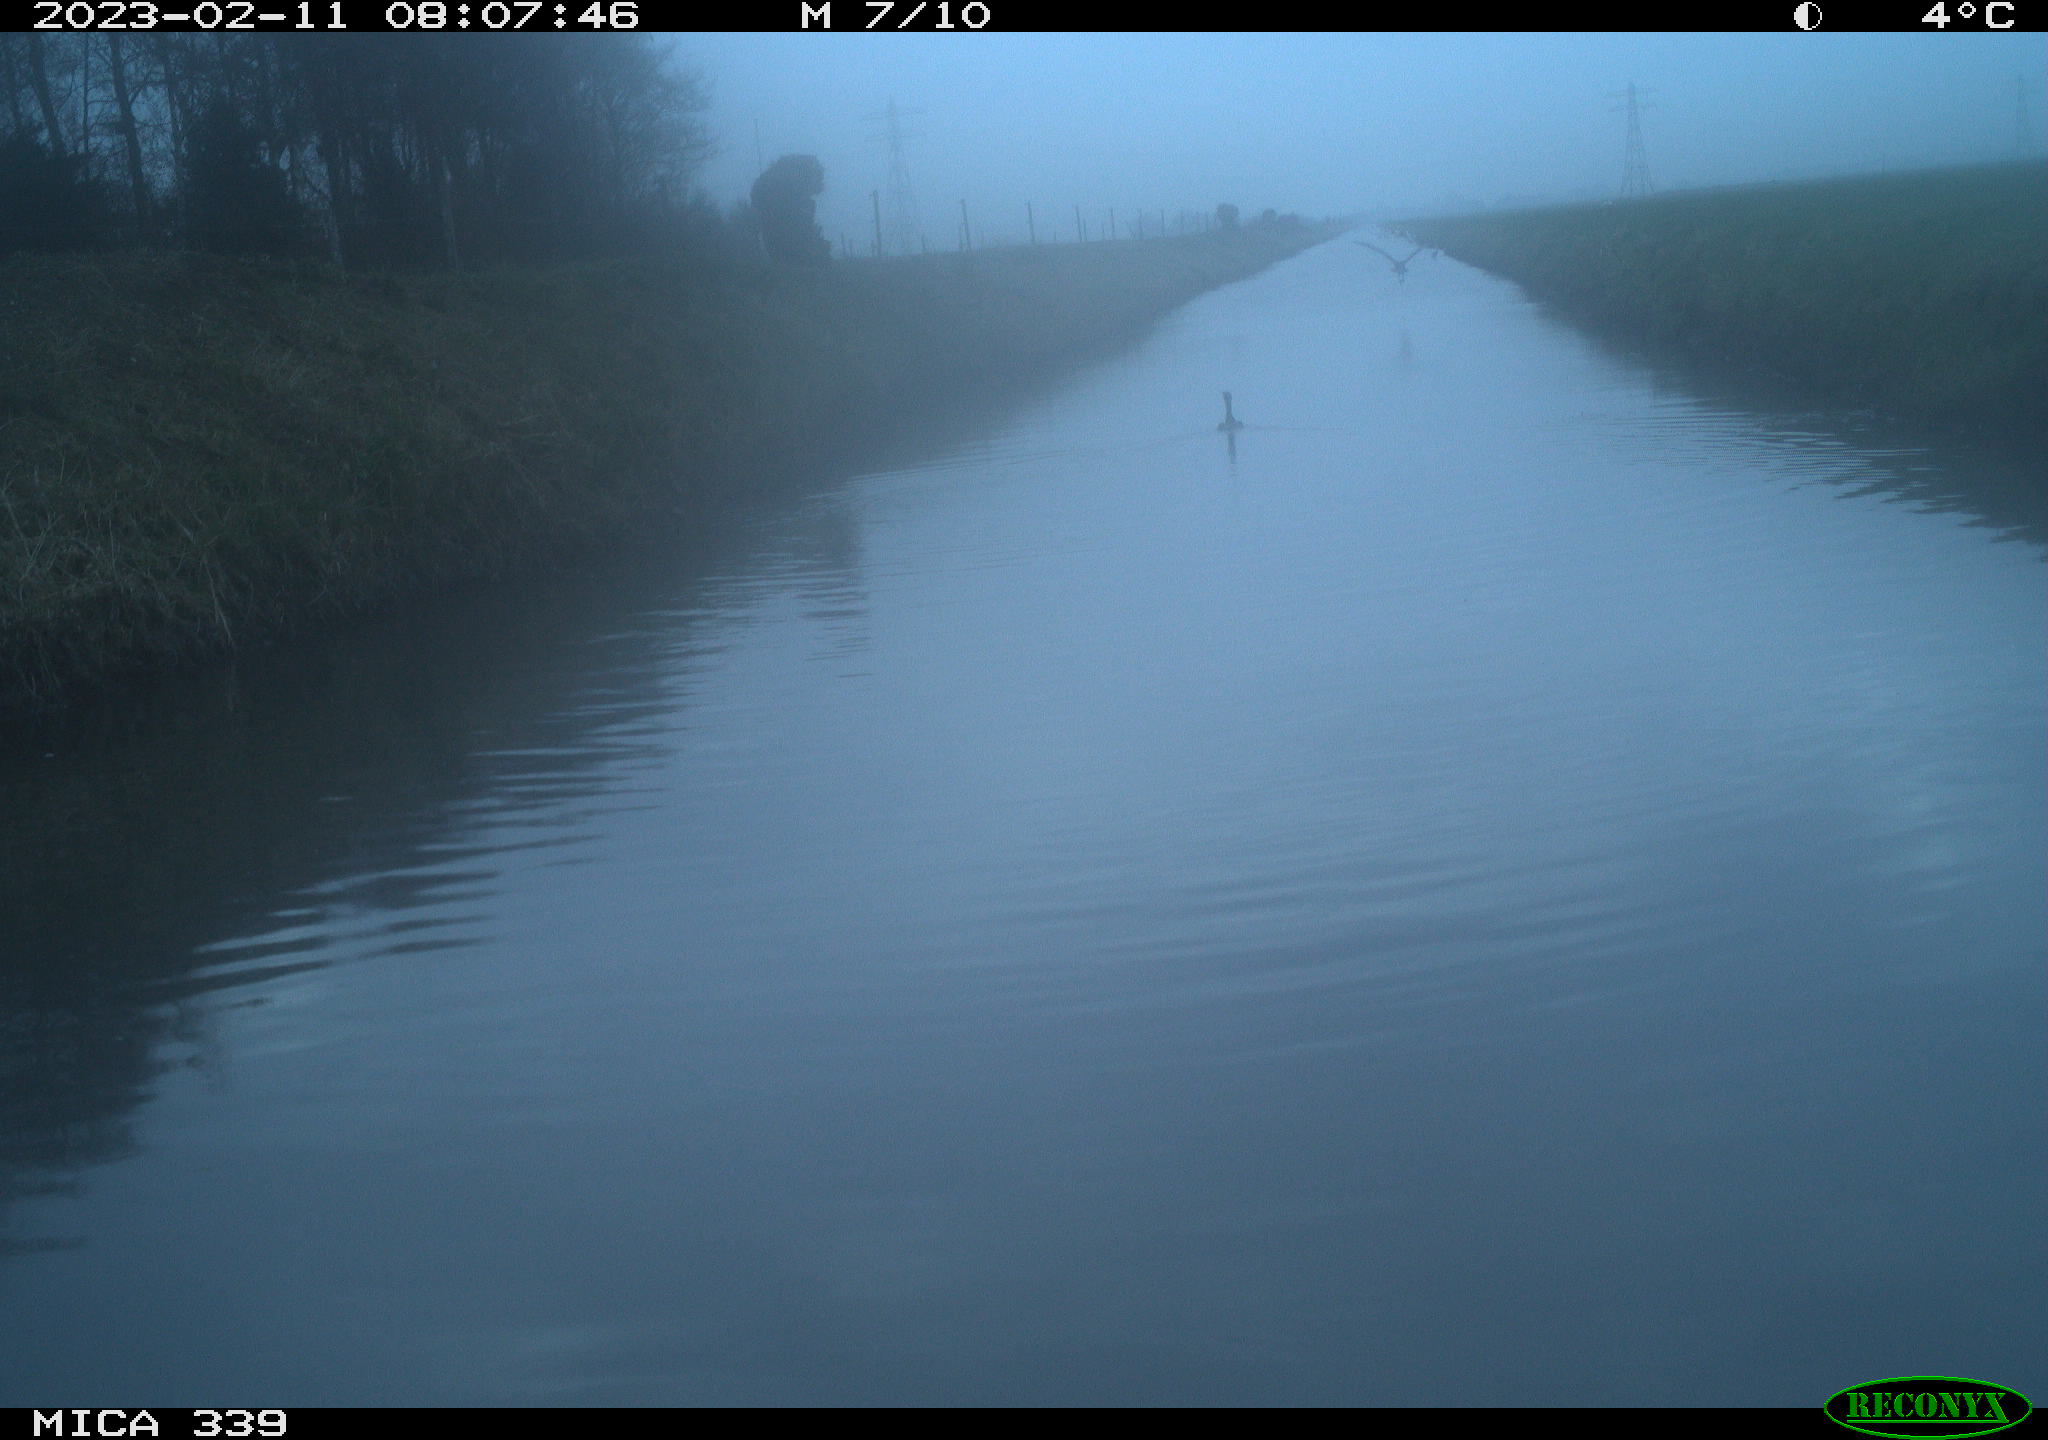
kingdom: Animalia
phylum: Chordata
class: Aves
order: Suliformes
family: Phalacrocoracidae
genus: Phalacrocorax
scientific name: Phalacrocorax carbo
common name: Great cormorant
